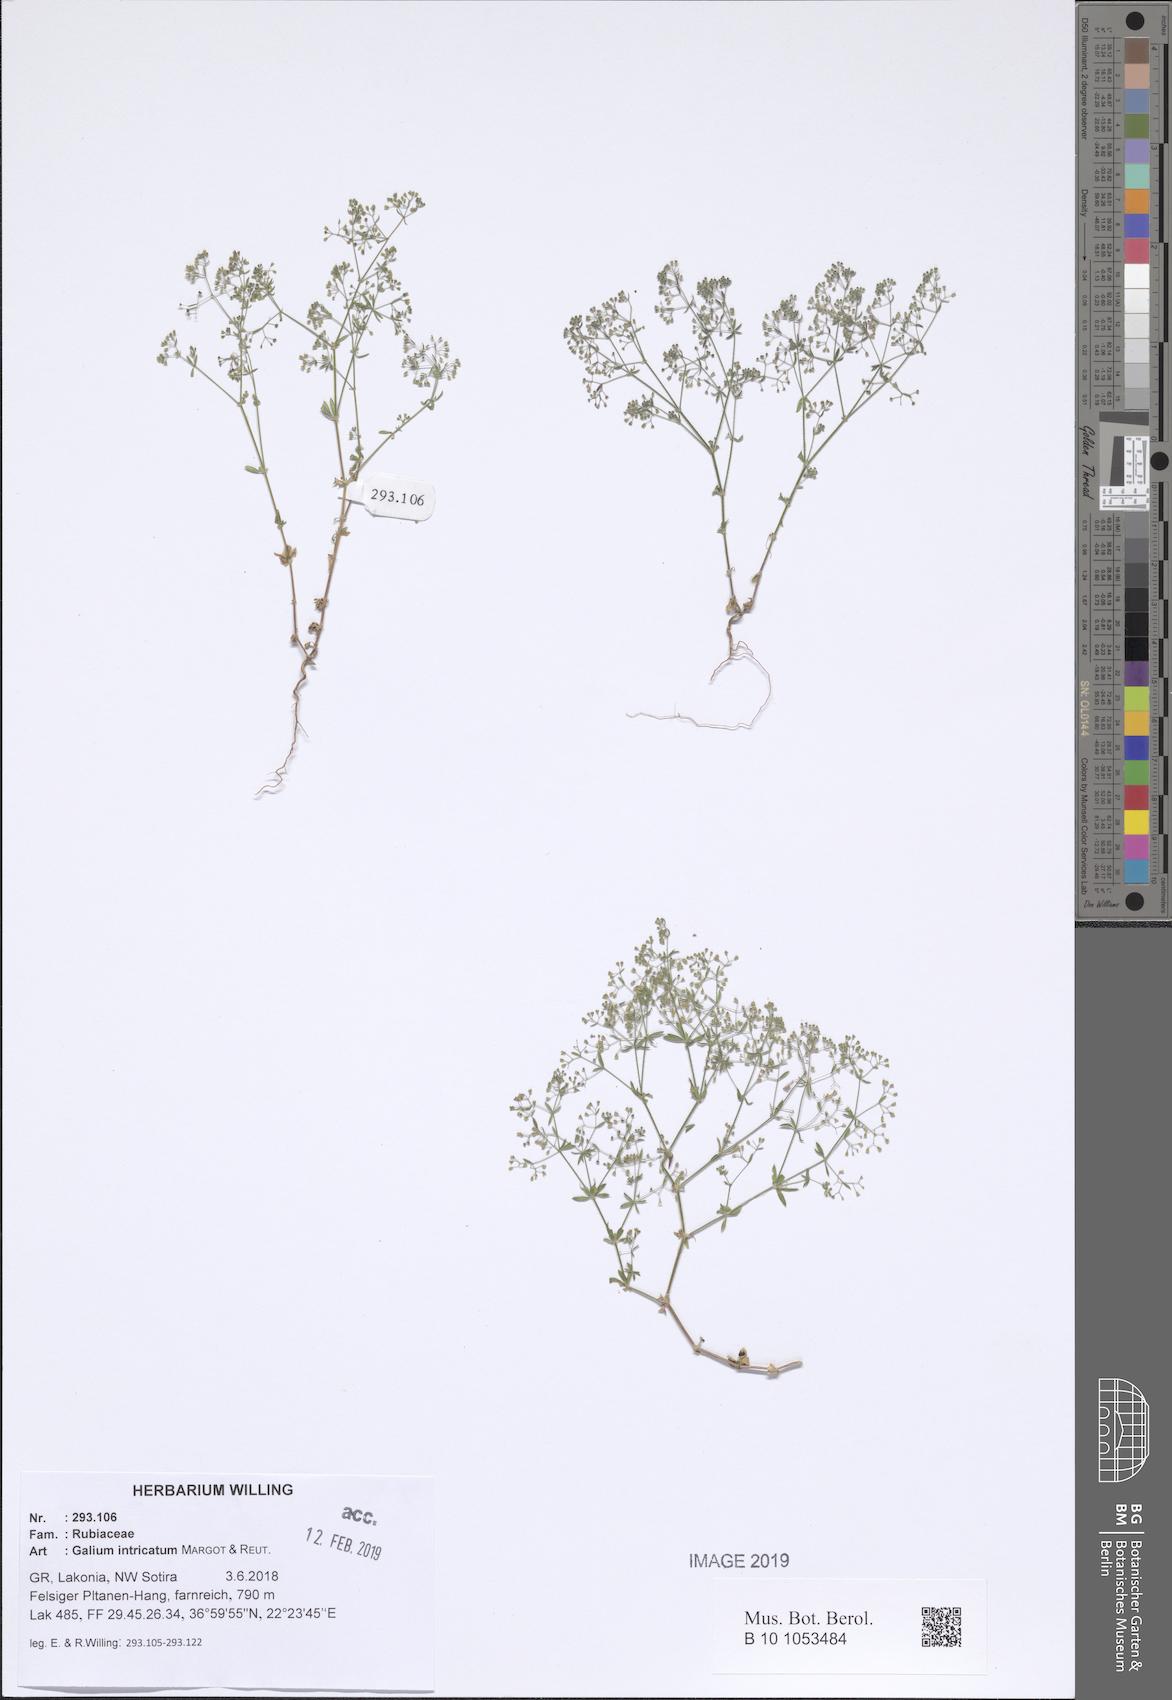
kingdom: Plantae
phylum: Tracheophyta
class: Magnoliopsida
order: Gentianales
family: Rubiaceae
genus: Galium
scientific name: Galium intricatum
